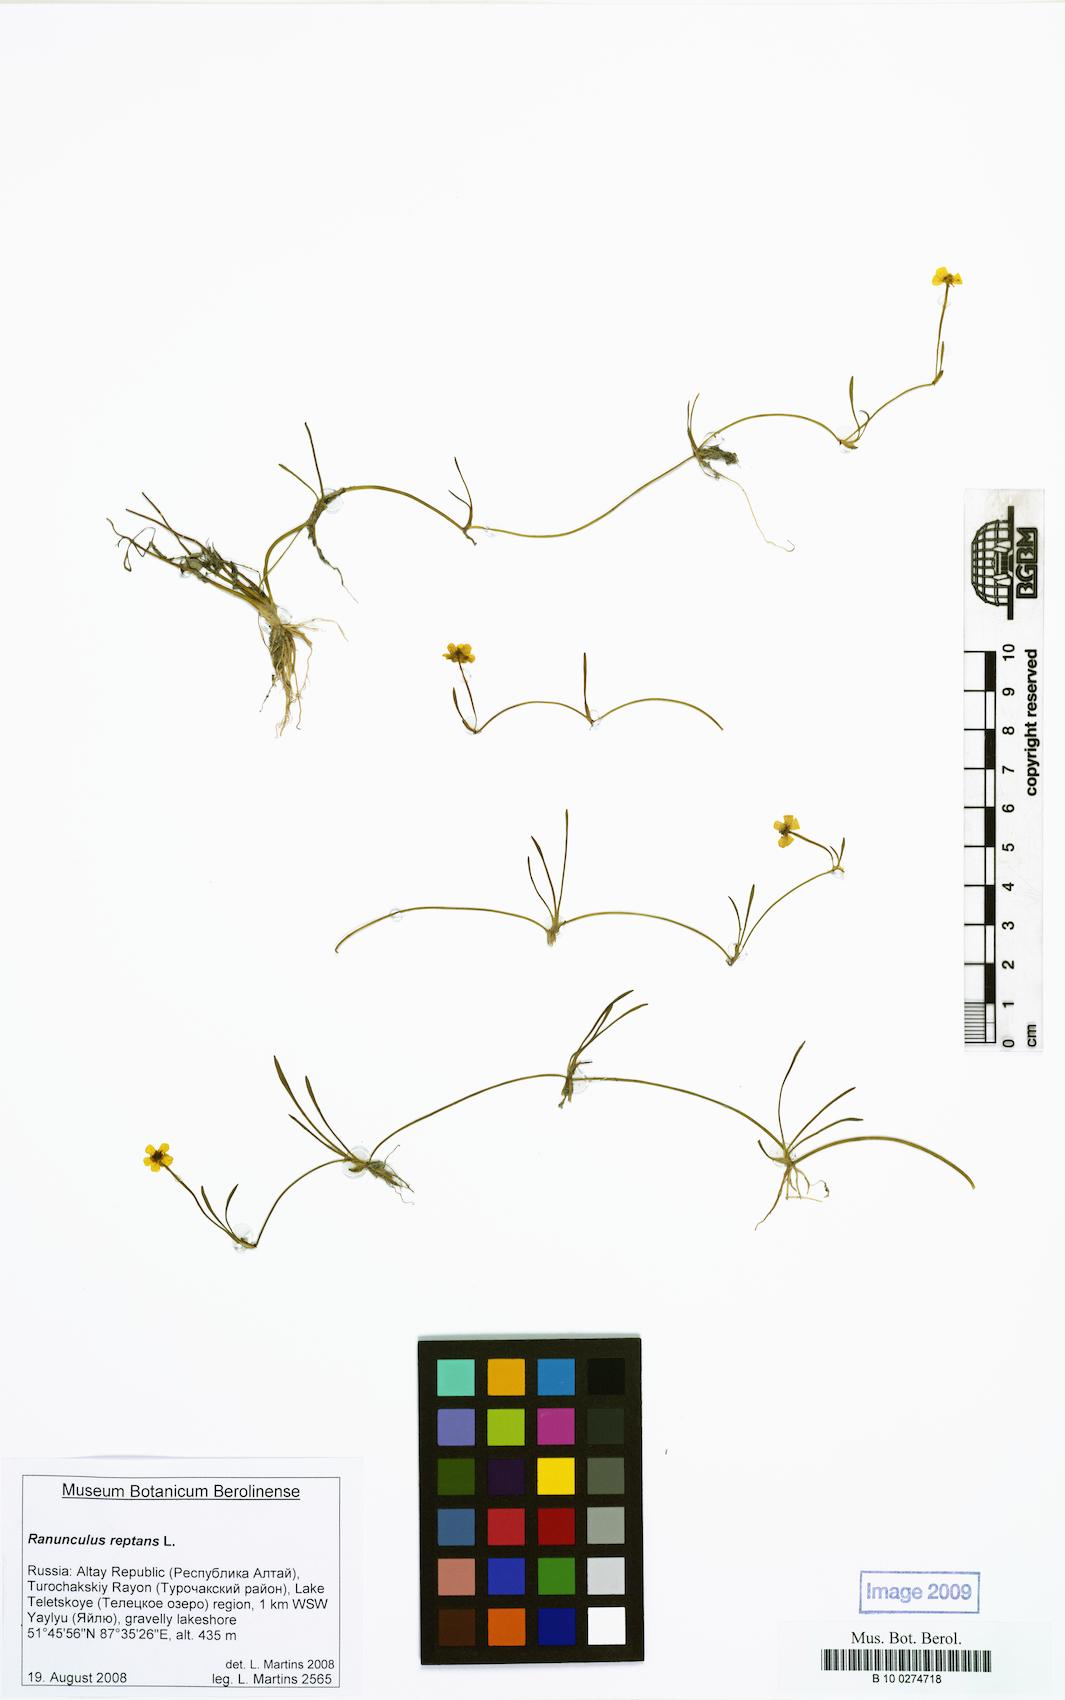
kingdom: Plantae
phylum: Tracheophyta
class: Magnoliopsida
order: Ranunculales
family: Ranunculaceae
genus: Ranunculus
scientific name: Ranunculus reptans
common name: Creeping spearwort
